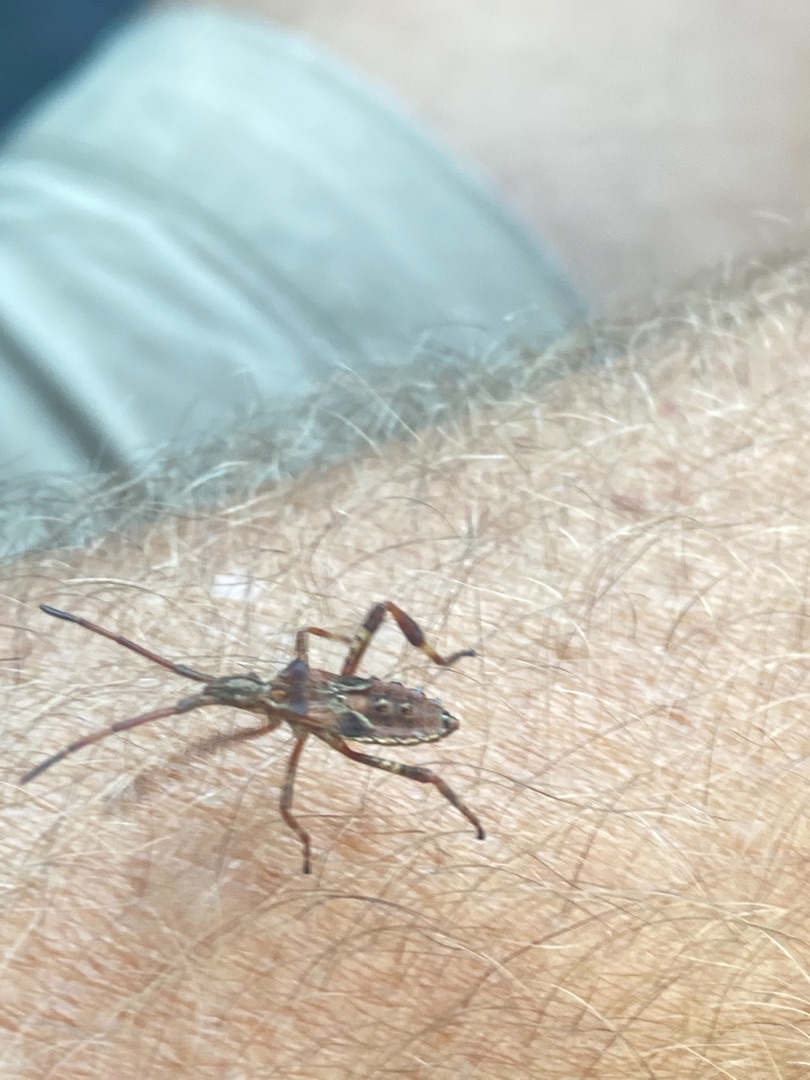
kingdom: Animalia
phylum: Arthropoda
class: Insecta
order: Hemiptera
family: Coreidae
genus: Leptoglossus
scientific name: Leptoglossus occidentalis
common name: Amerikansk fyrretæge
